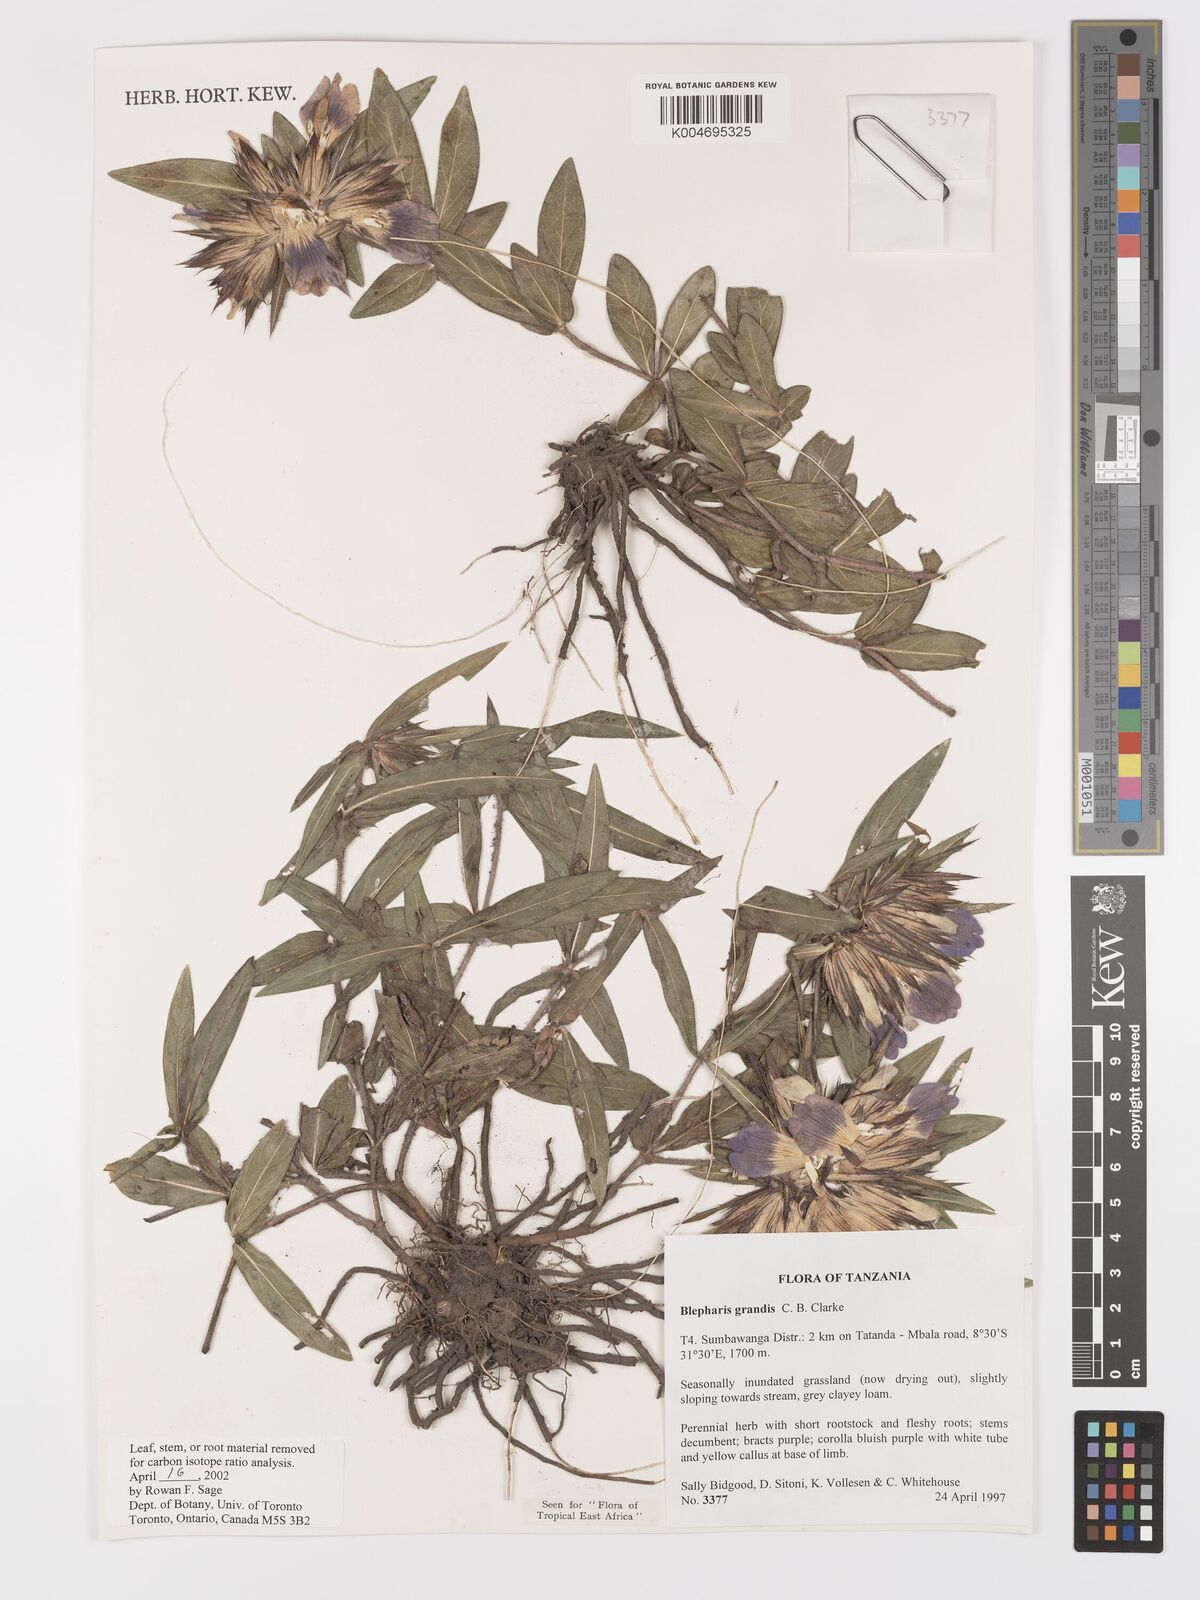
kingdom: Plantae
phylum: Tracheophyta
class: Magnoliopsida
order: Lamiales
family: Acanthaceae
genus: Blepharis
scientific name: Blepharis grandis
